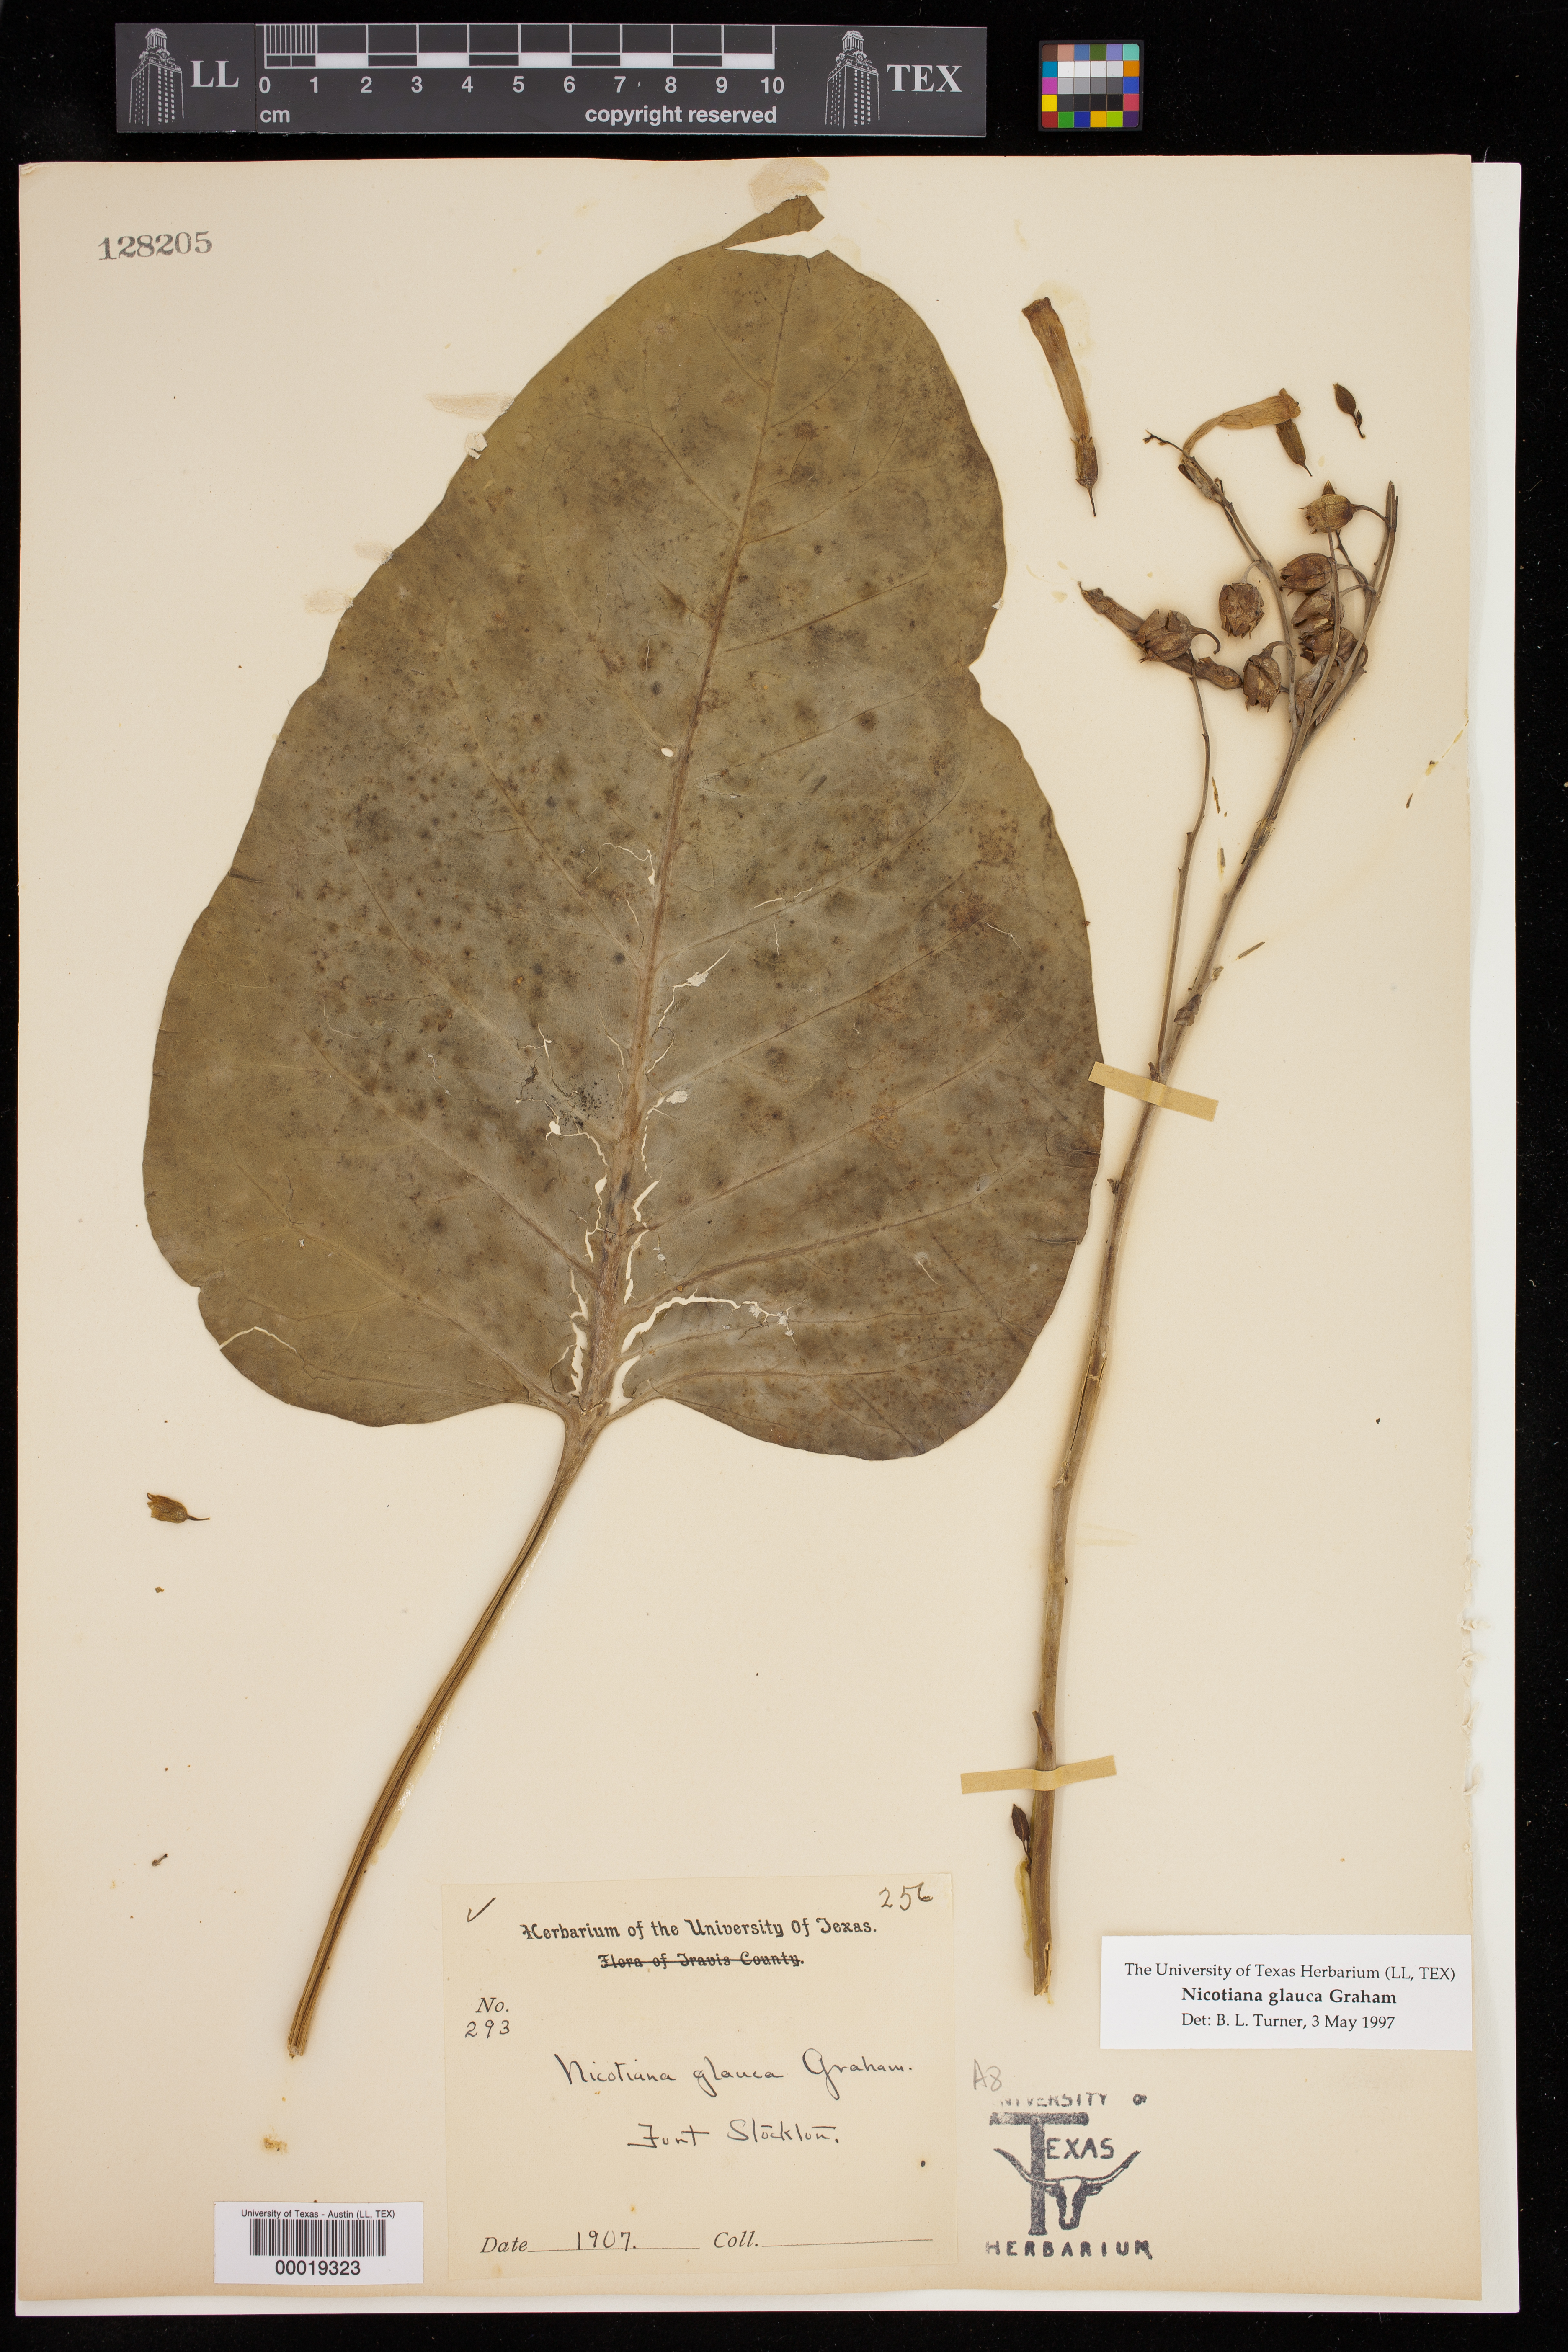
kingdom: Plantae
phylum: Tracheophyta
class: Magnoliopsida
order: Solanales
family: Solanaceae
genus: Nicotiana
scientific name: Nicotiana glauca
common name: Tree tobacco
